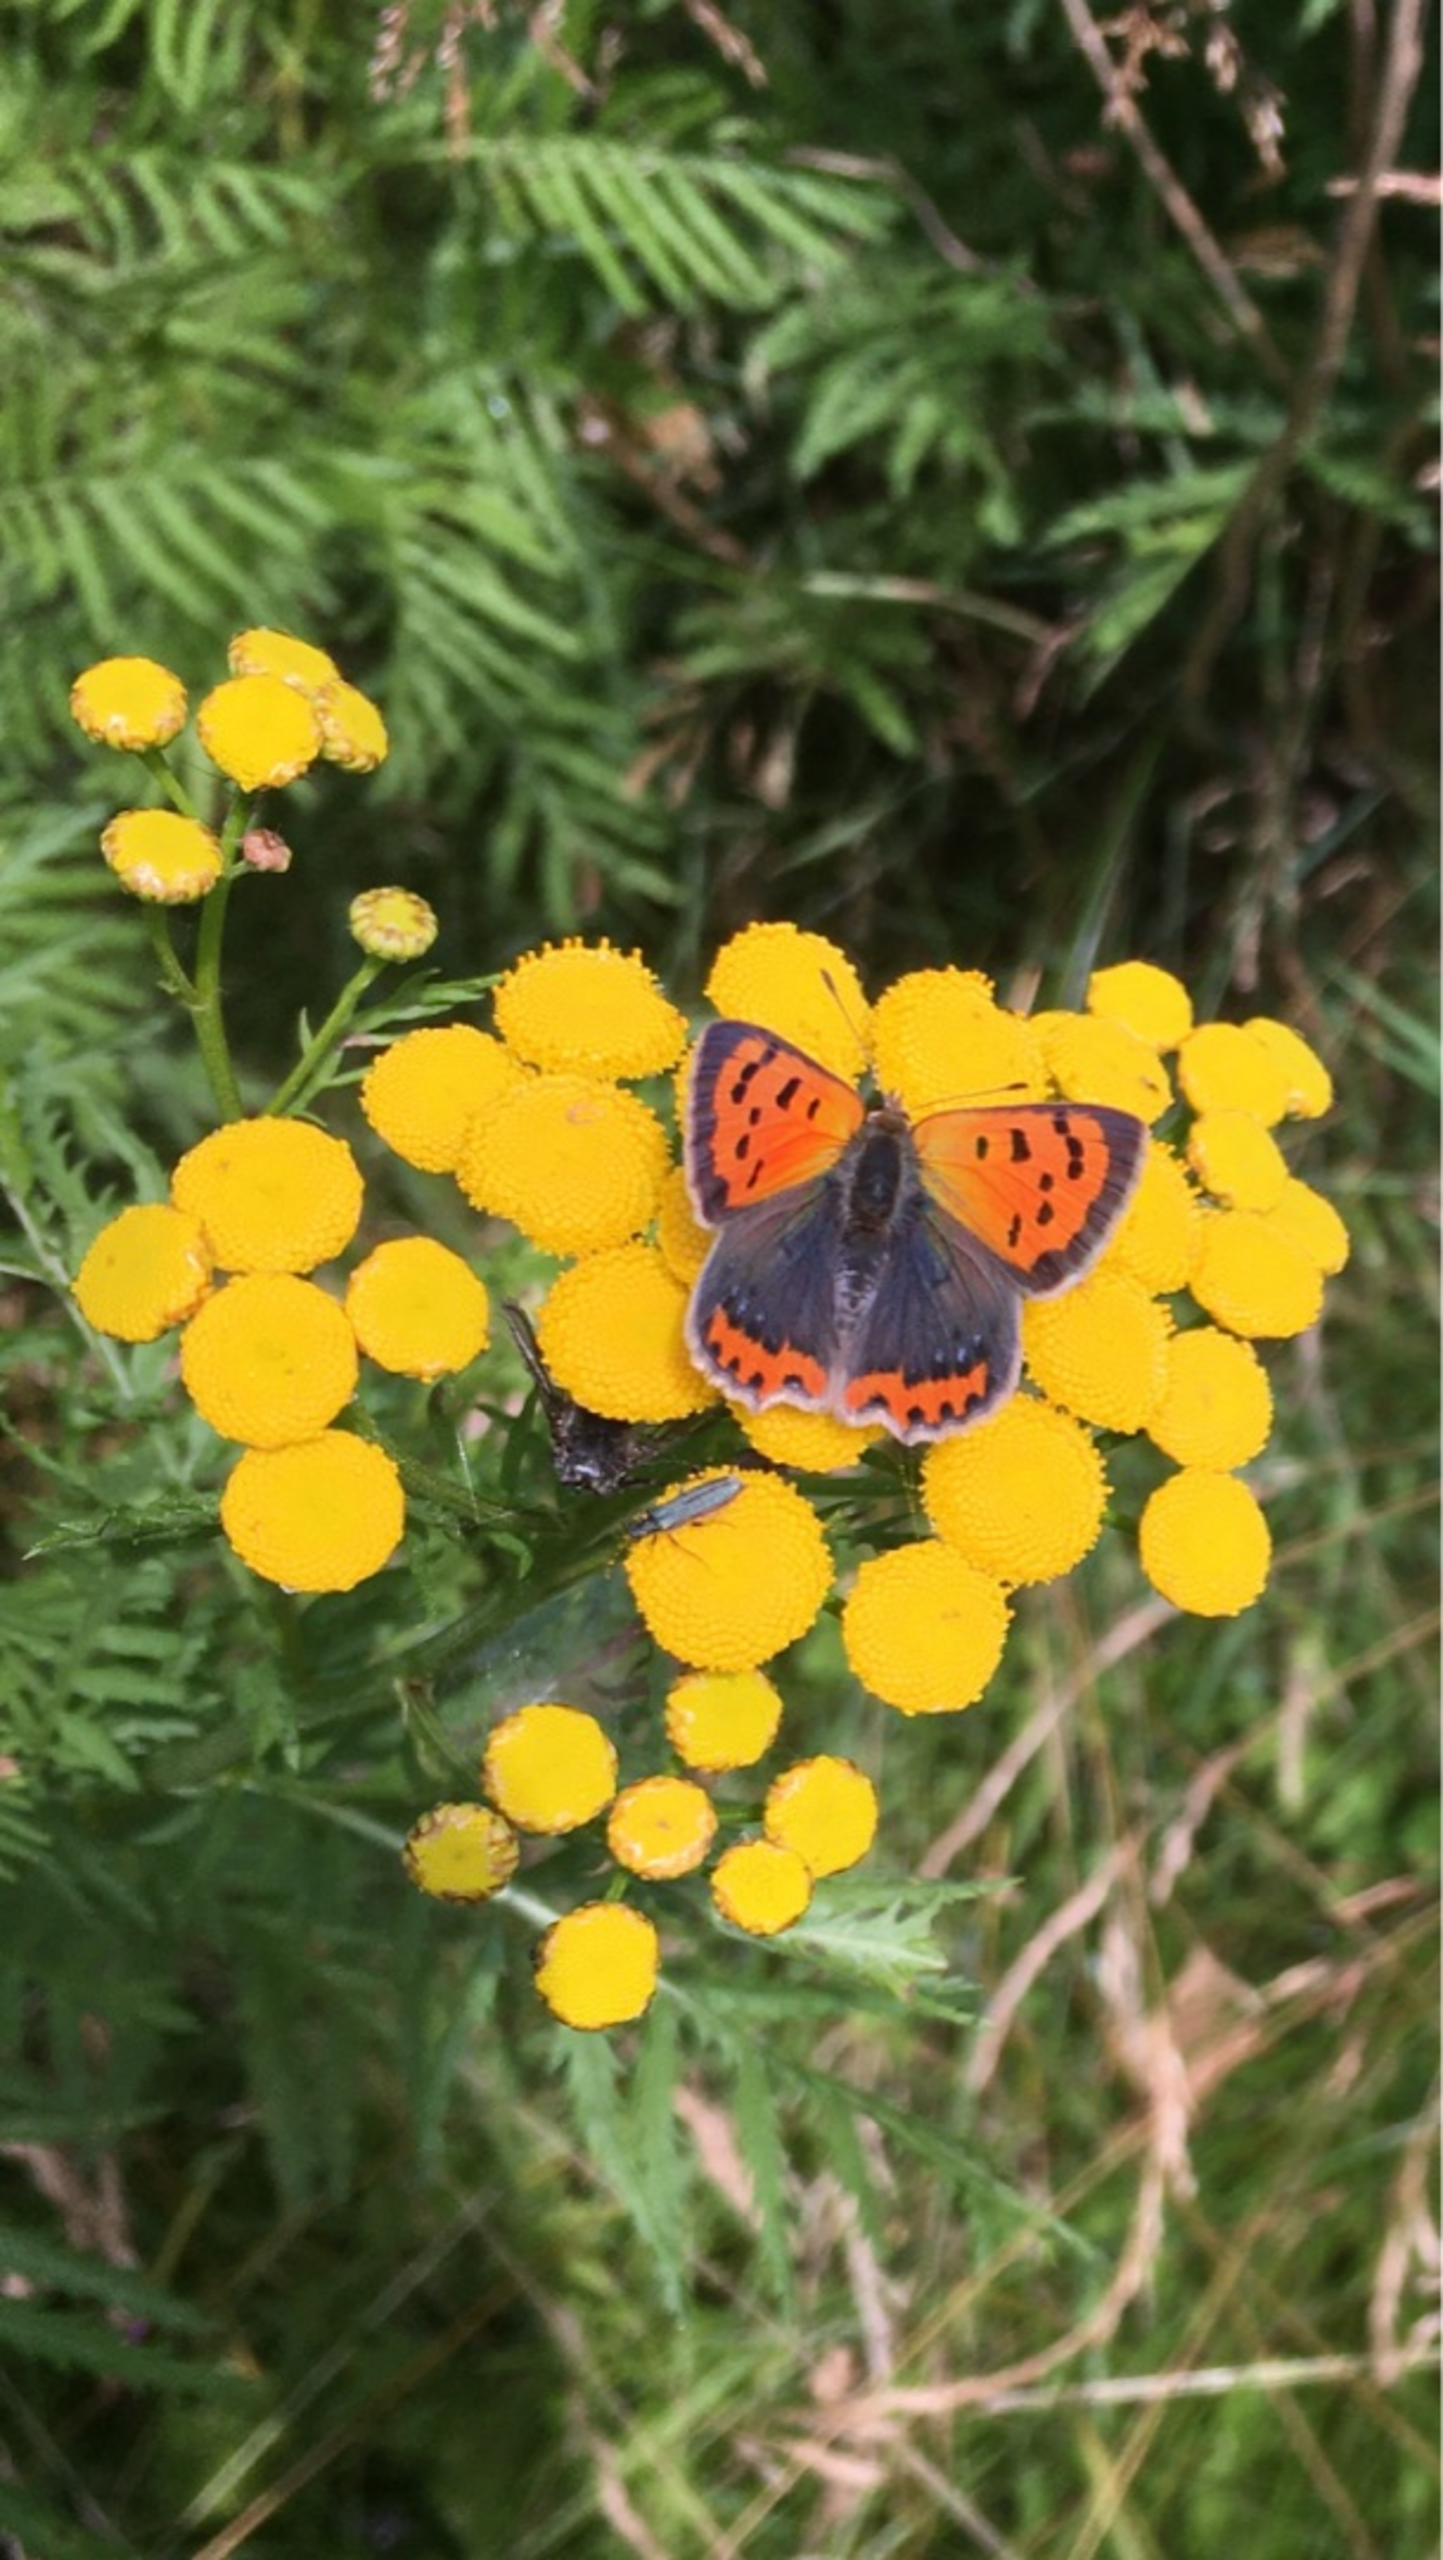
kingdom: Animalia
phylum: Arthropoda
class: Insecta
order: Lepidoptera
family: Lycaenidae
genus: Lycaena
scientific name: Lycaena phlaeas
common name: Lille ildfugl
